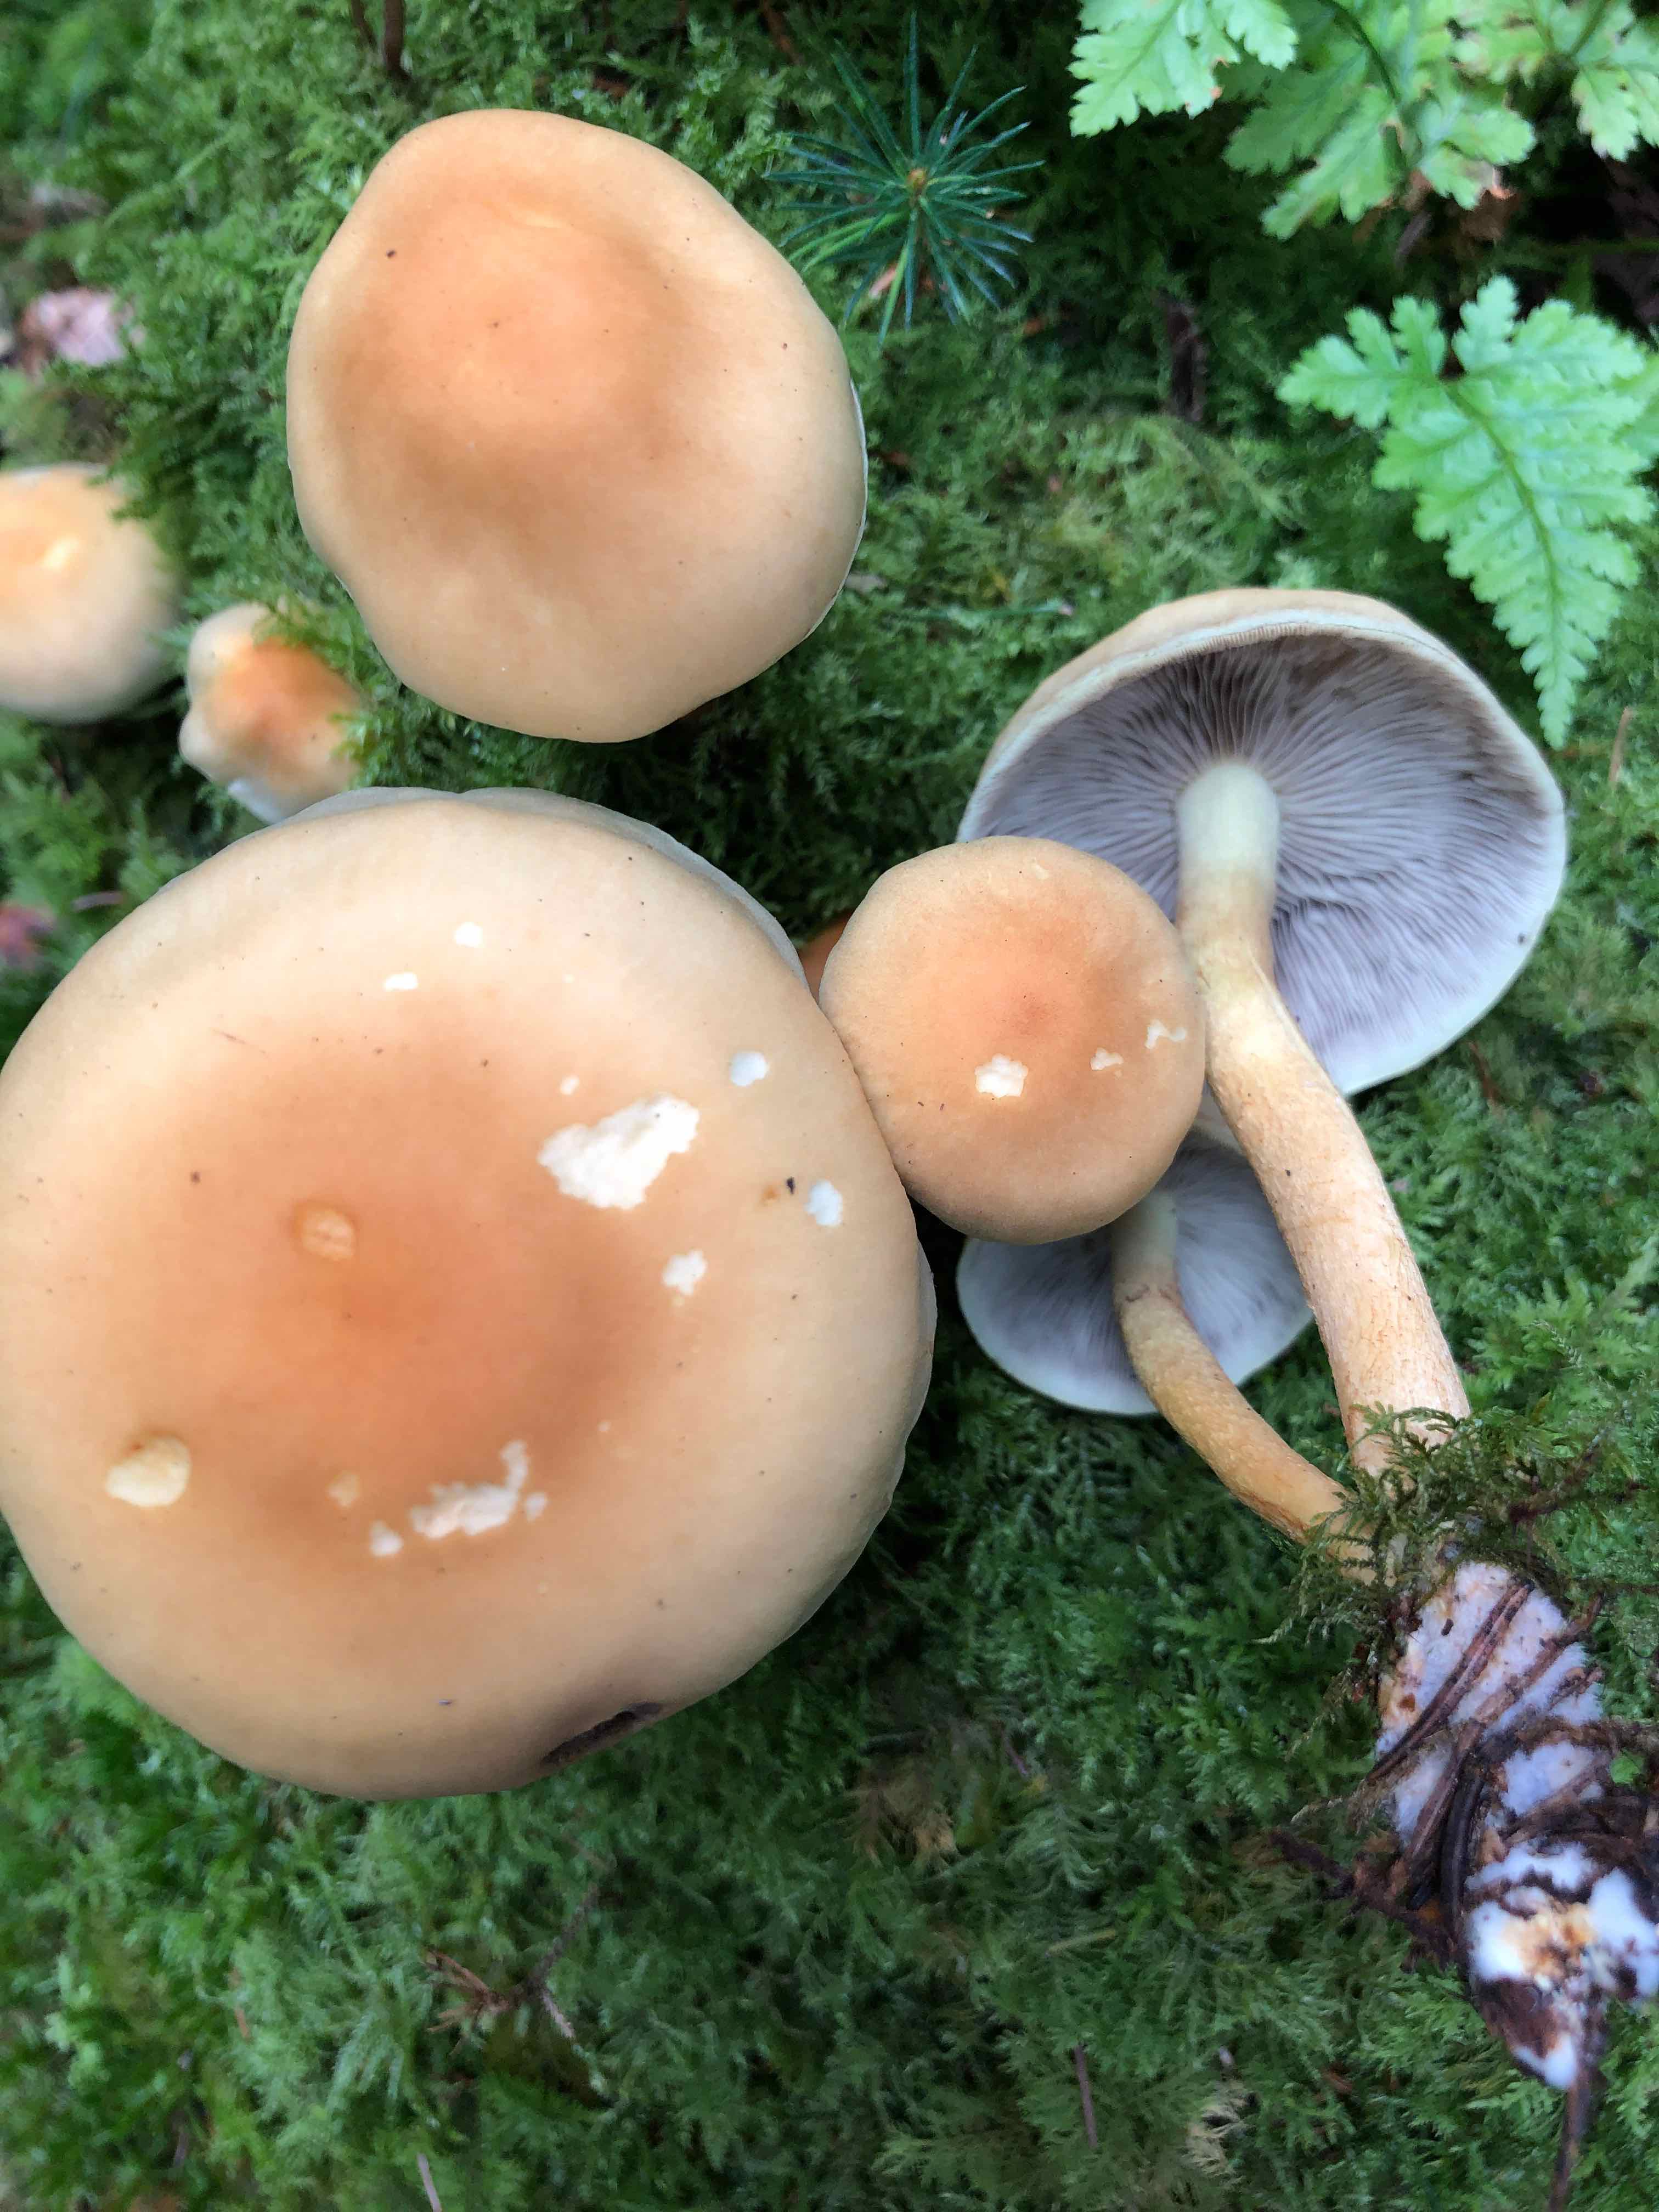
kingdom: Fungi
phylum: Basidiomycota
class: Agaricomycetes
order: Agaricales
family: Strophariaceae
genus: Hypholoma
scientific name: Hypholoma capnoides
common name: gran-svovlhat
